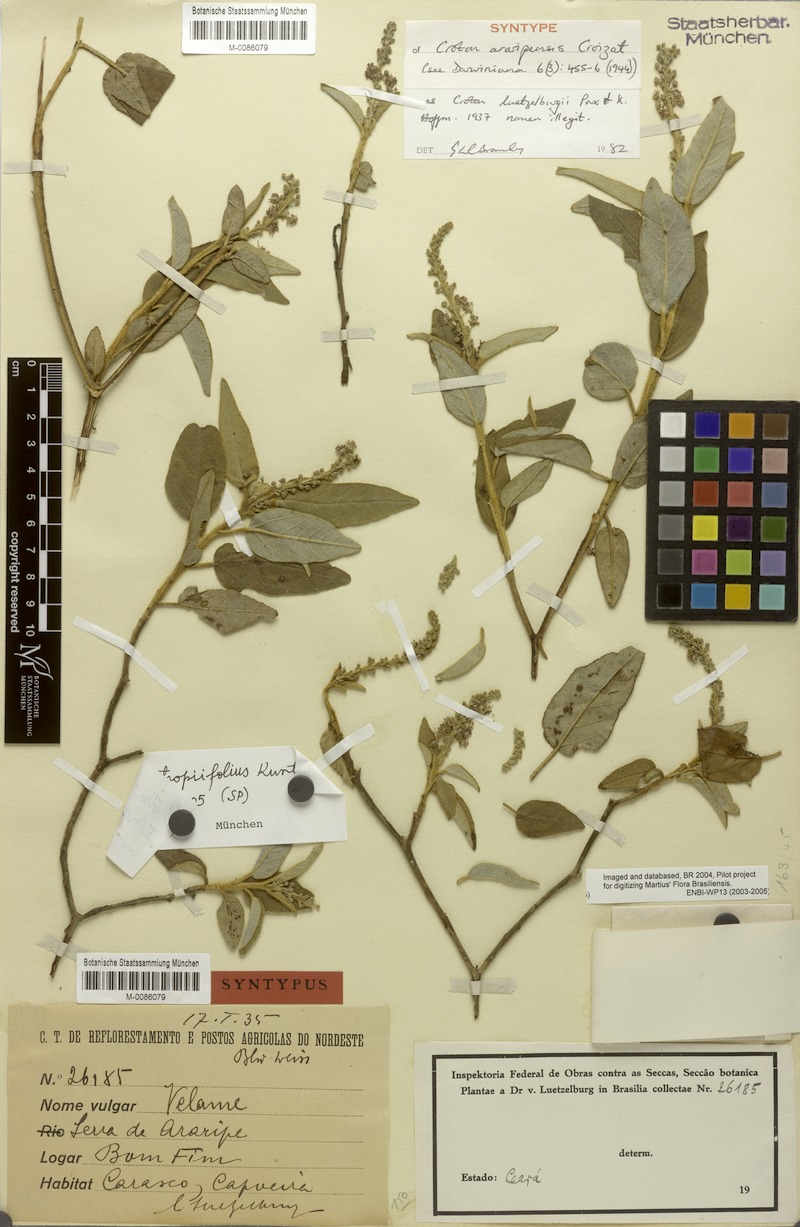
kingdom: Plantae
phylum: Tracheophyta
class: Magnoliopsida
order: Malpighiales
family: Euphorbiaceae
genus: Croton
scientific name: Croton heliotropiifolius
